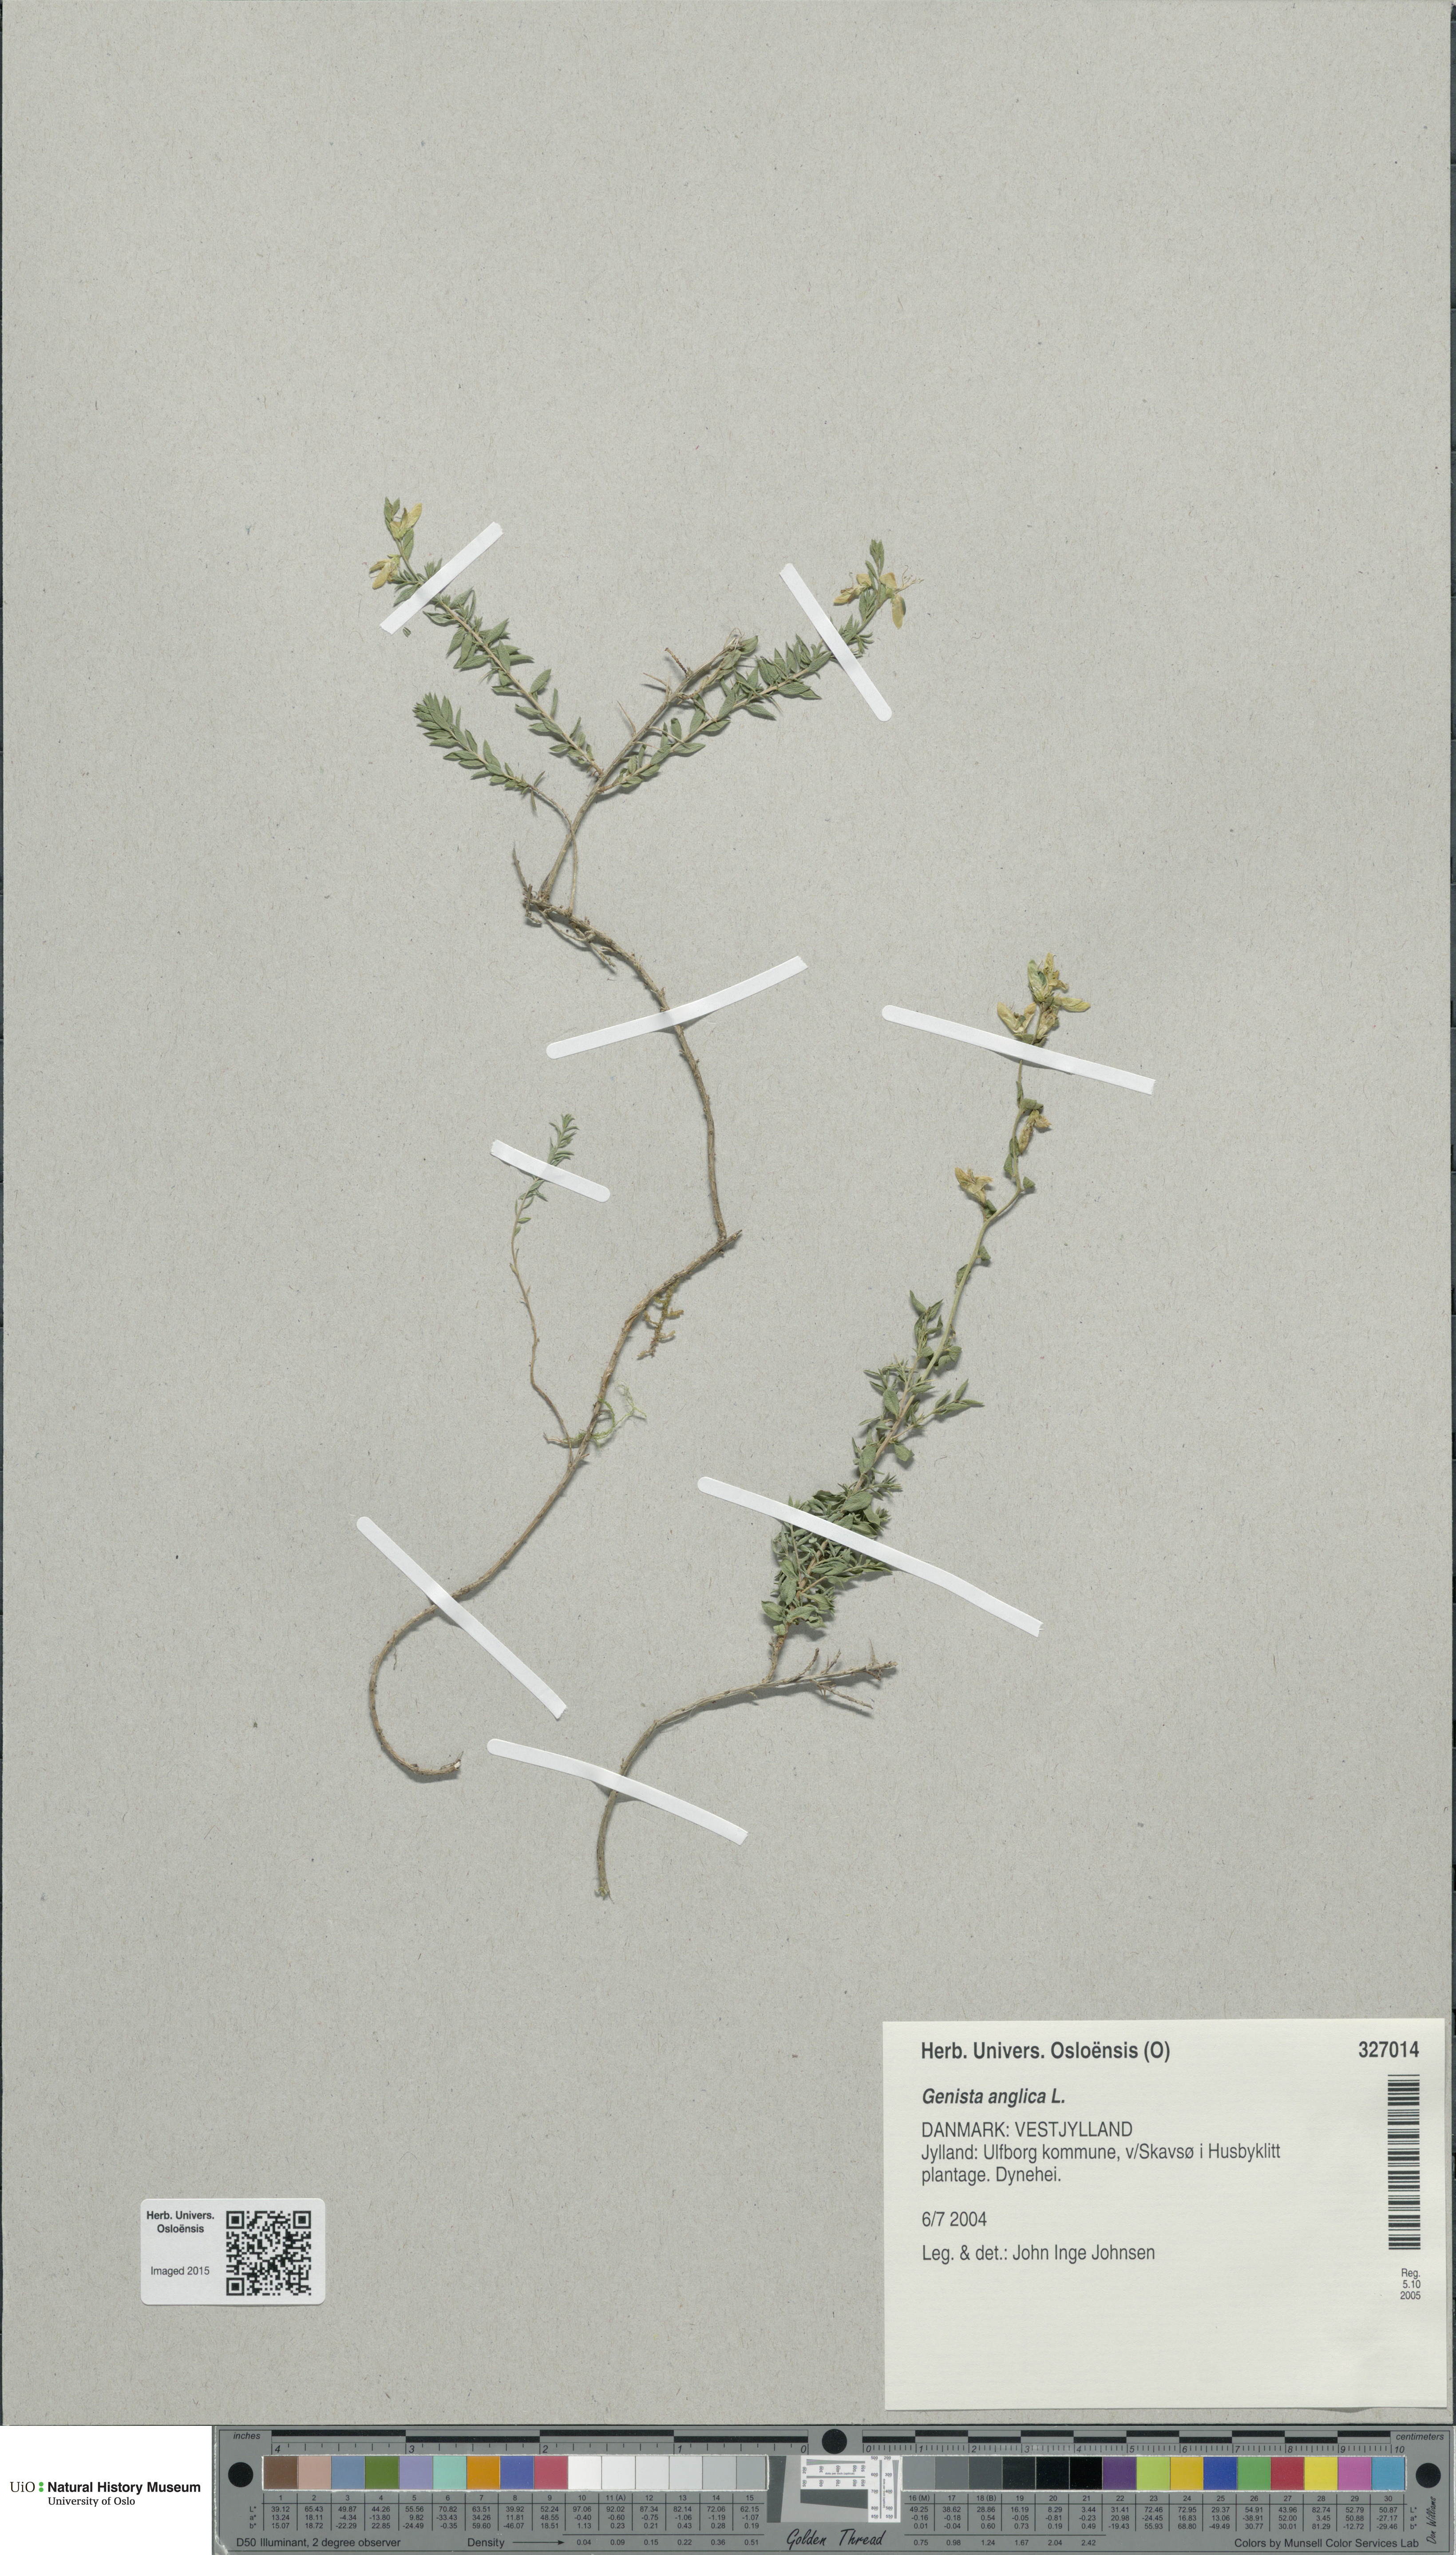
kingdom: Plantae
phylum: Tracheophyta
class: Magnoliopsida
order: Fabales
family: Fabaceae
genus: Genista
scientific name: Genista anglica
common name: Petty whin
